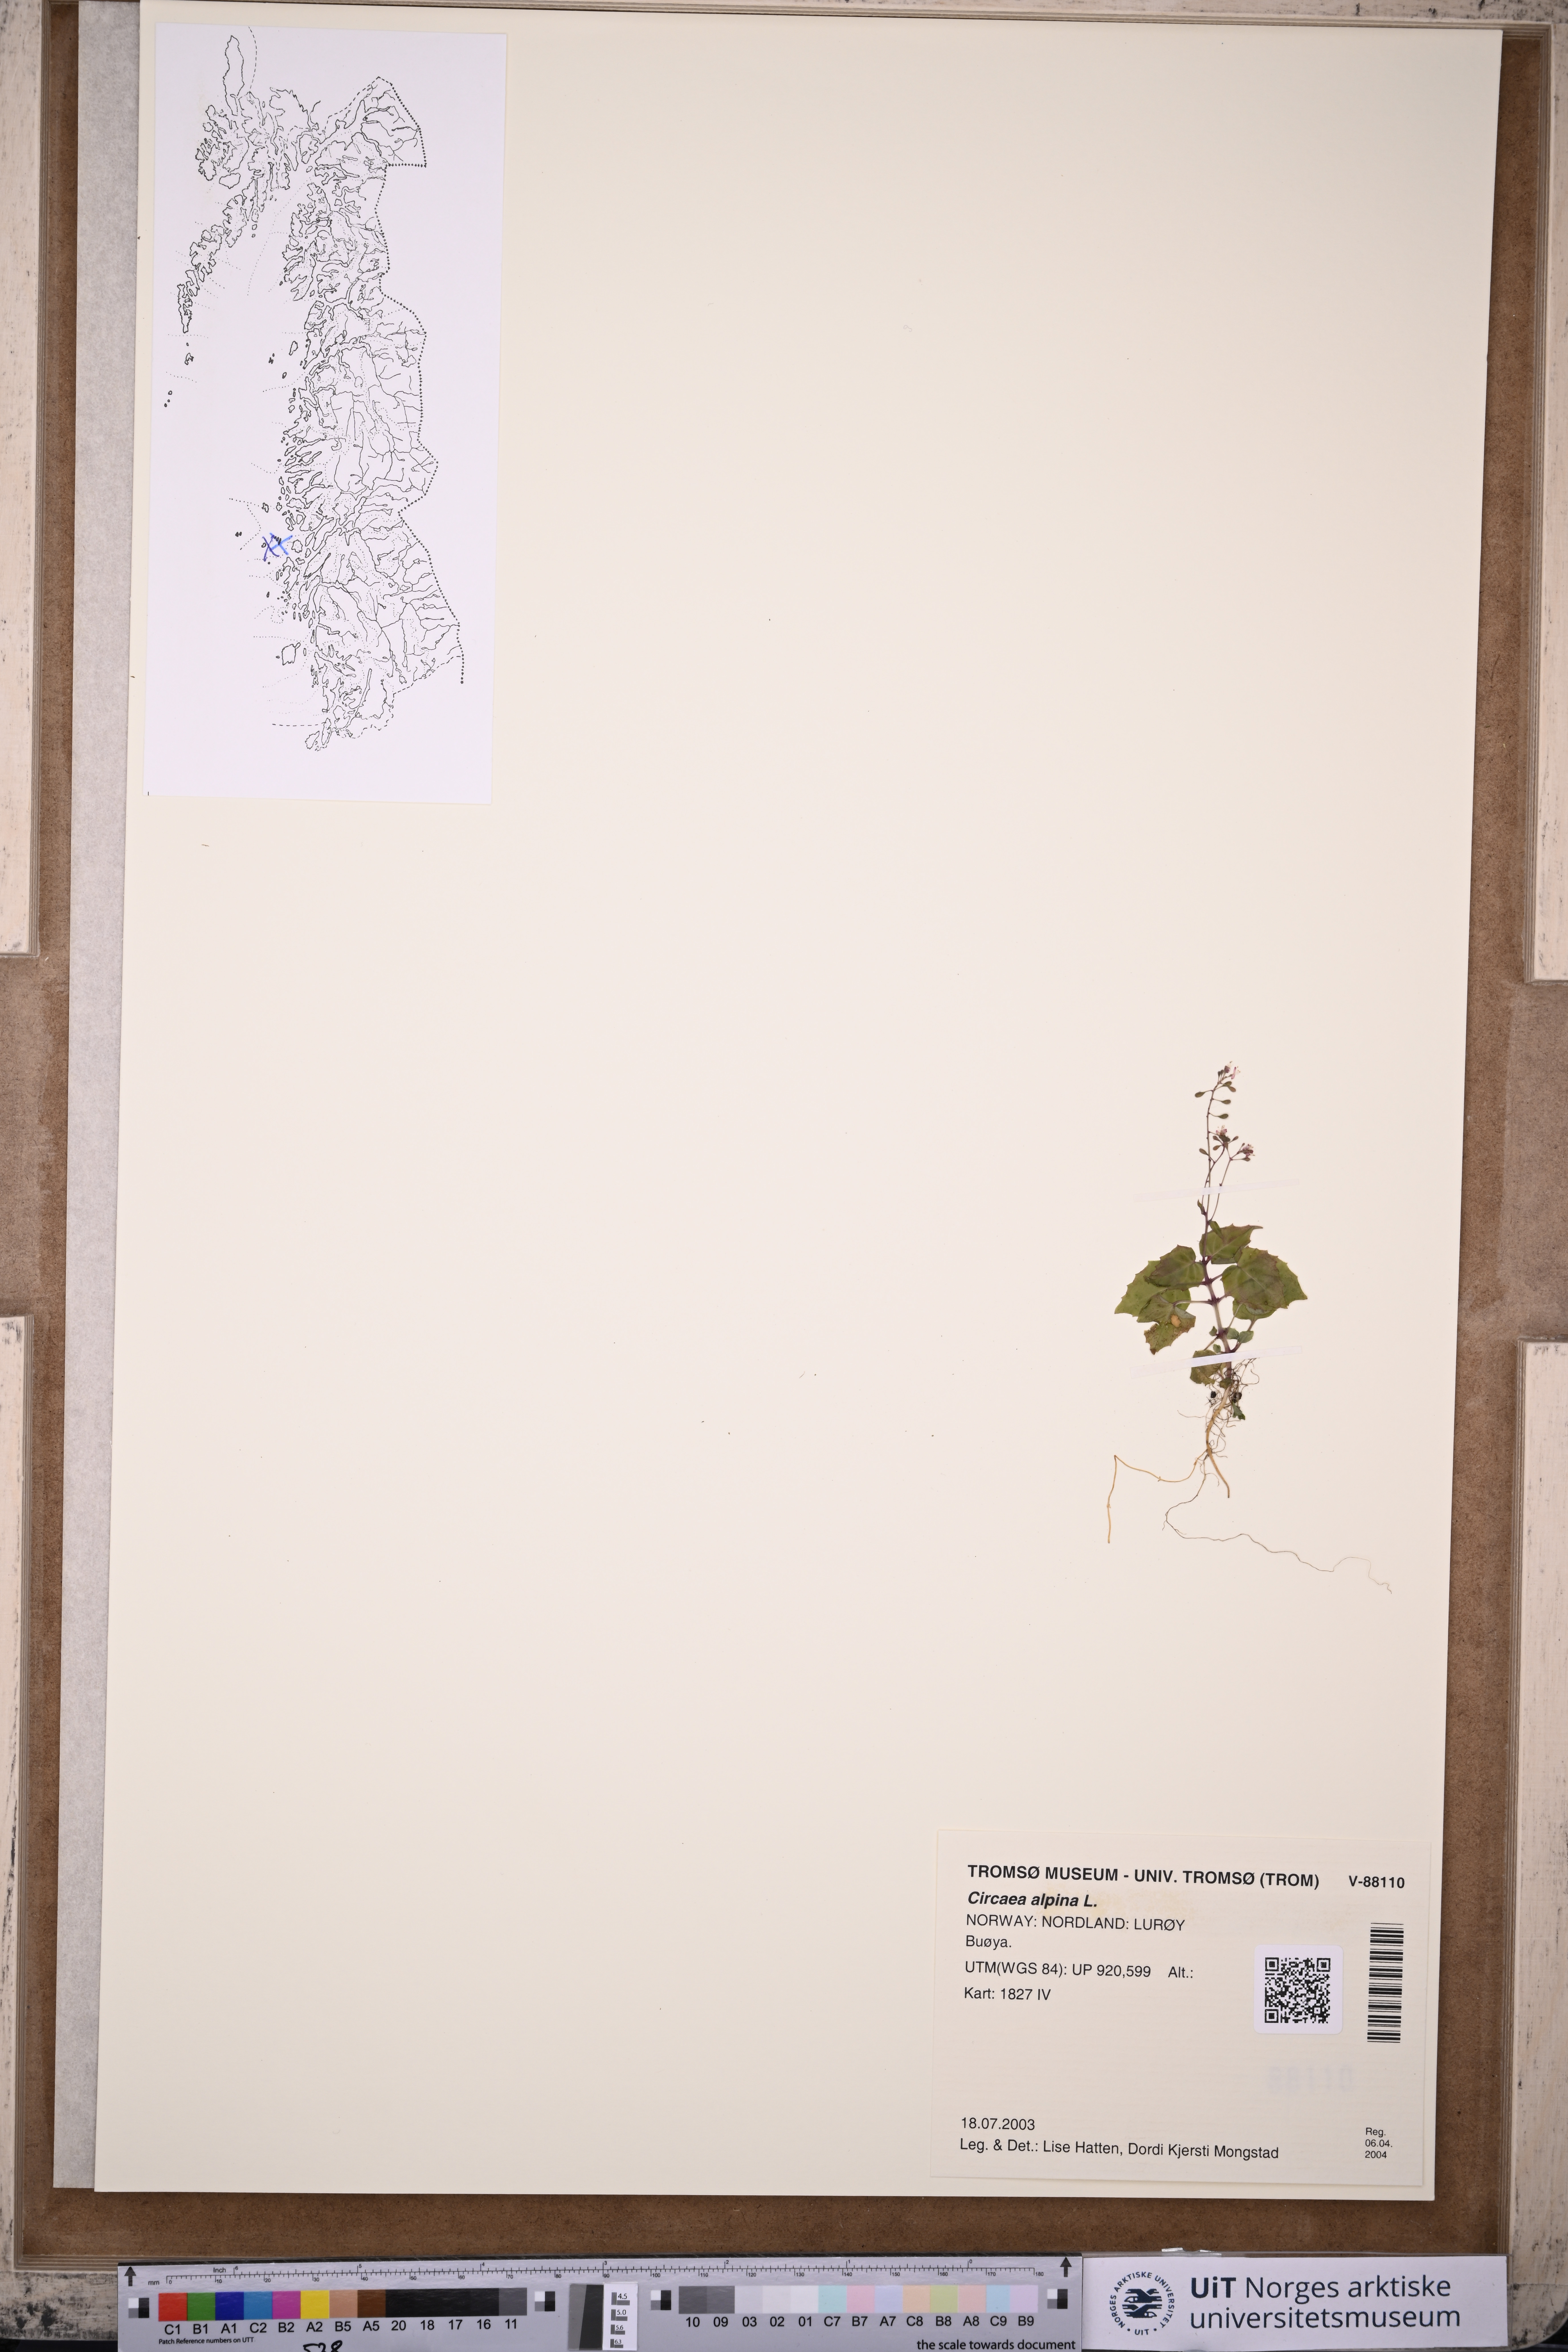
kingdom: Plantae
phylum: Tracheophyta
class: Magnoliopsida
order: Myrtales
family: Onagraceae
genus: Circaea
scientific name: Circaea alpina
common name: Alpine enchanter's-nightshade
